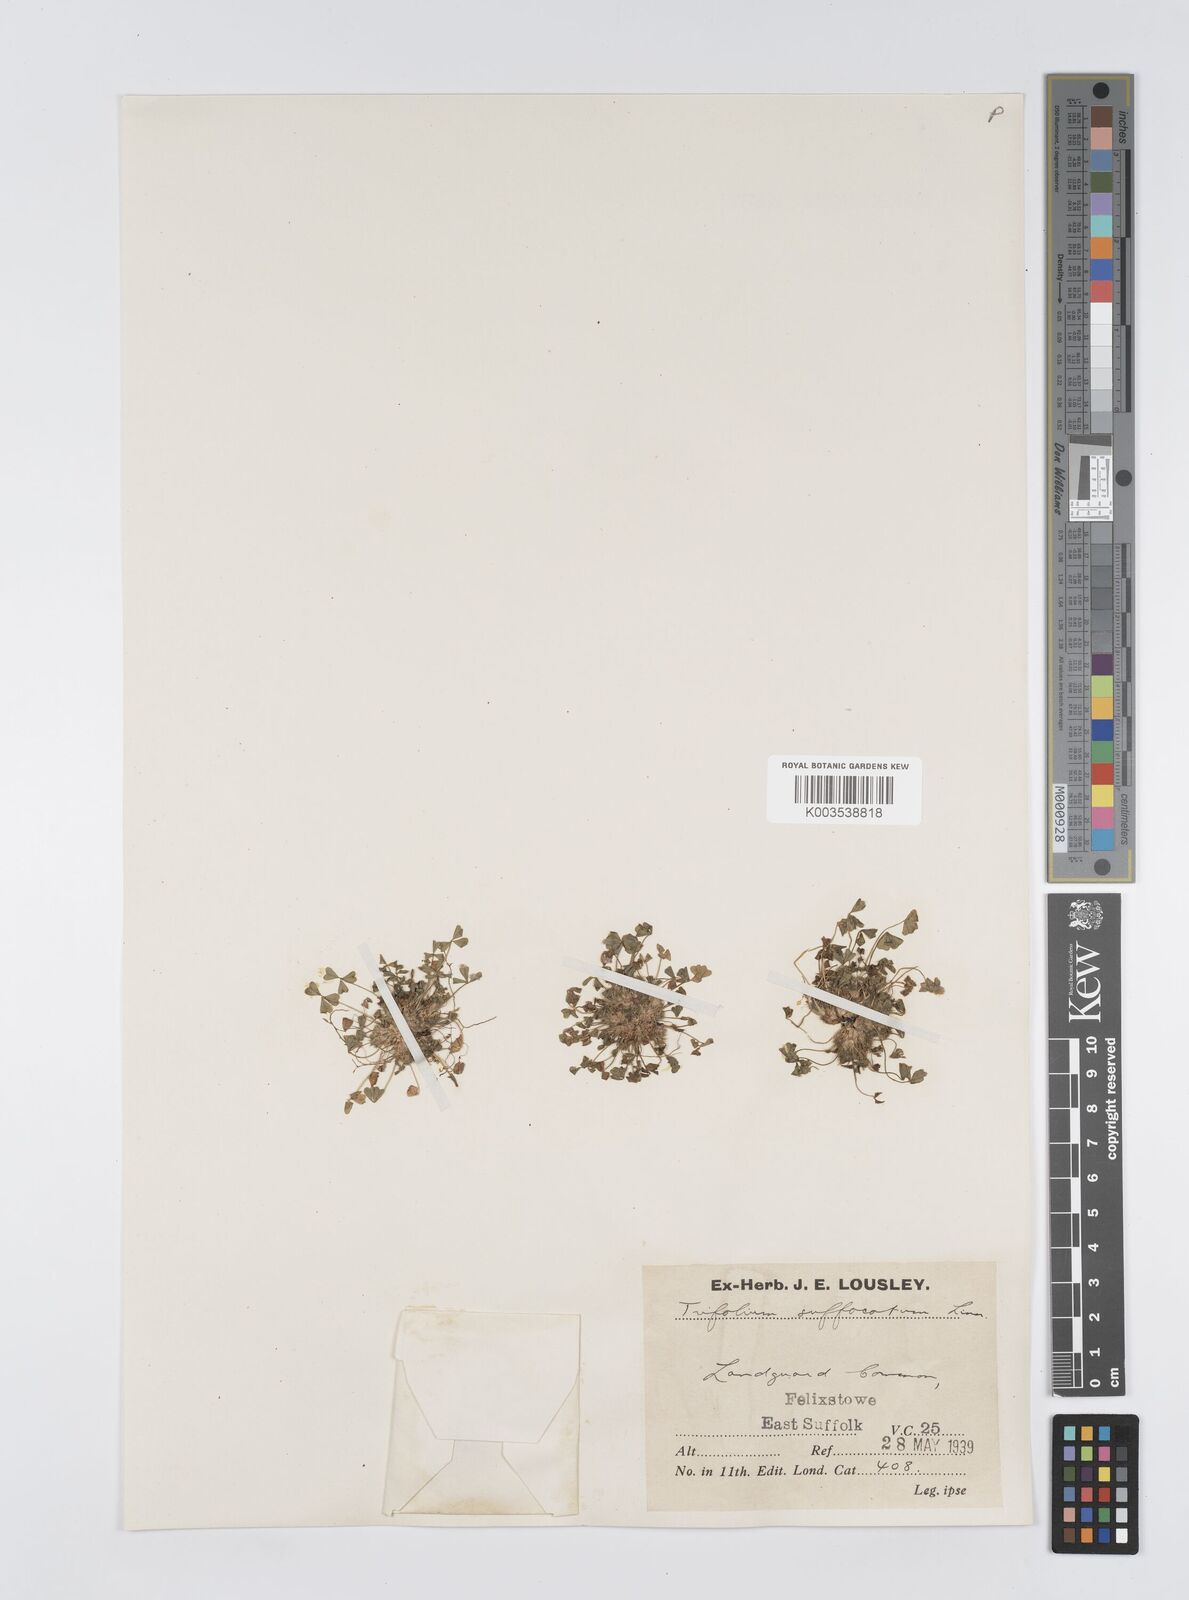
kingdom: Plantae
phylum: Tracheophyta
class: Magnoliopsida
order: Fabales
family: Fabaceae
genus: Trifolium
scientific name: Trifolium suffocatum
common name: Suffocated clover
